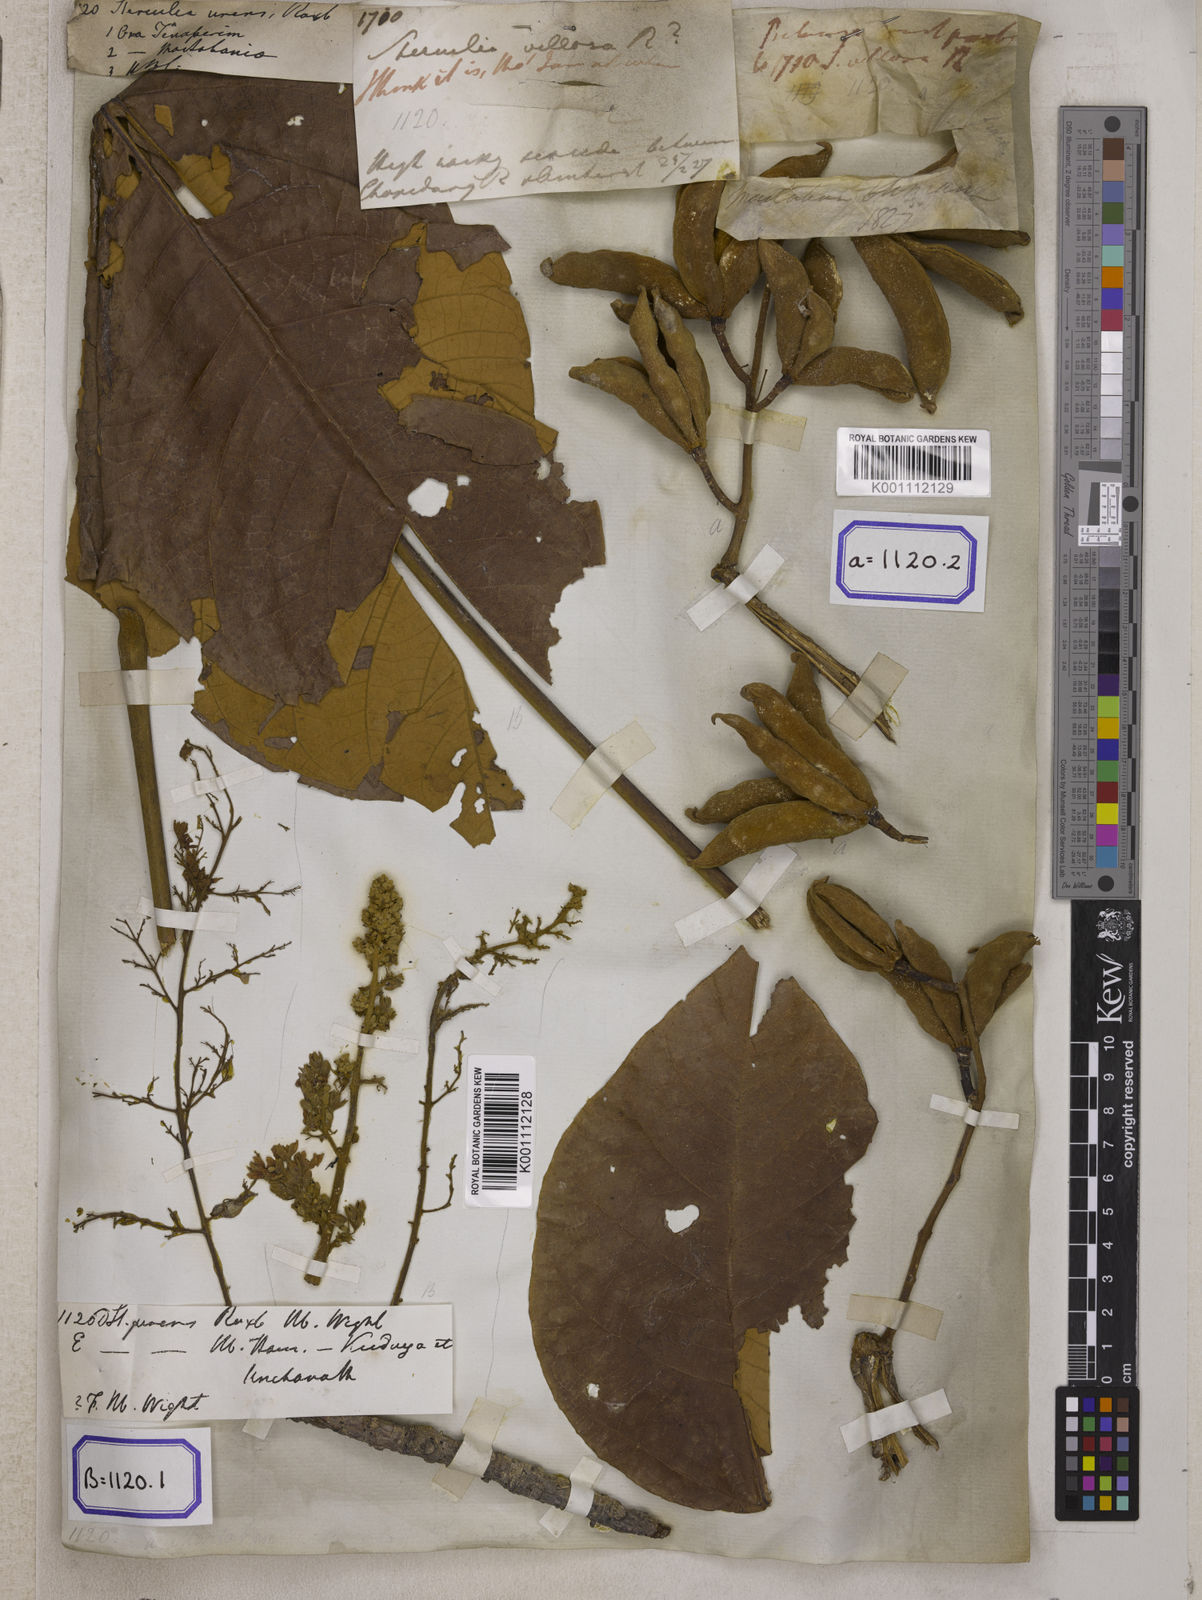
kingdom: Plantae
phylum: Tracheophyta
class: Magnoliopsida
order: Malvales
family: Malvaceae
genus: Sterculia
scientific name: Sterculia urens
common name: Indian-tragacanth
